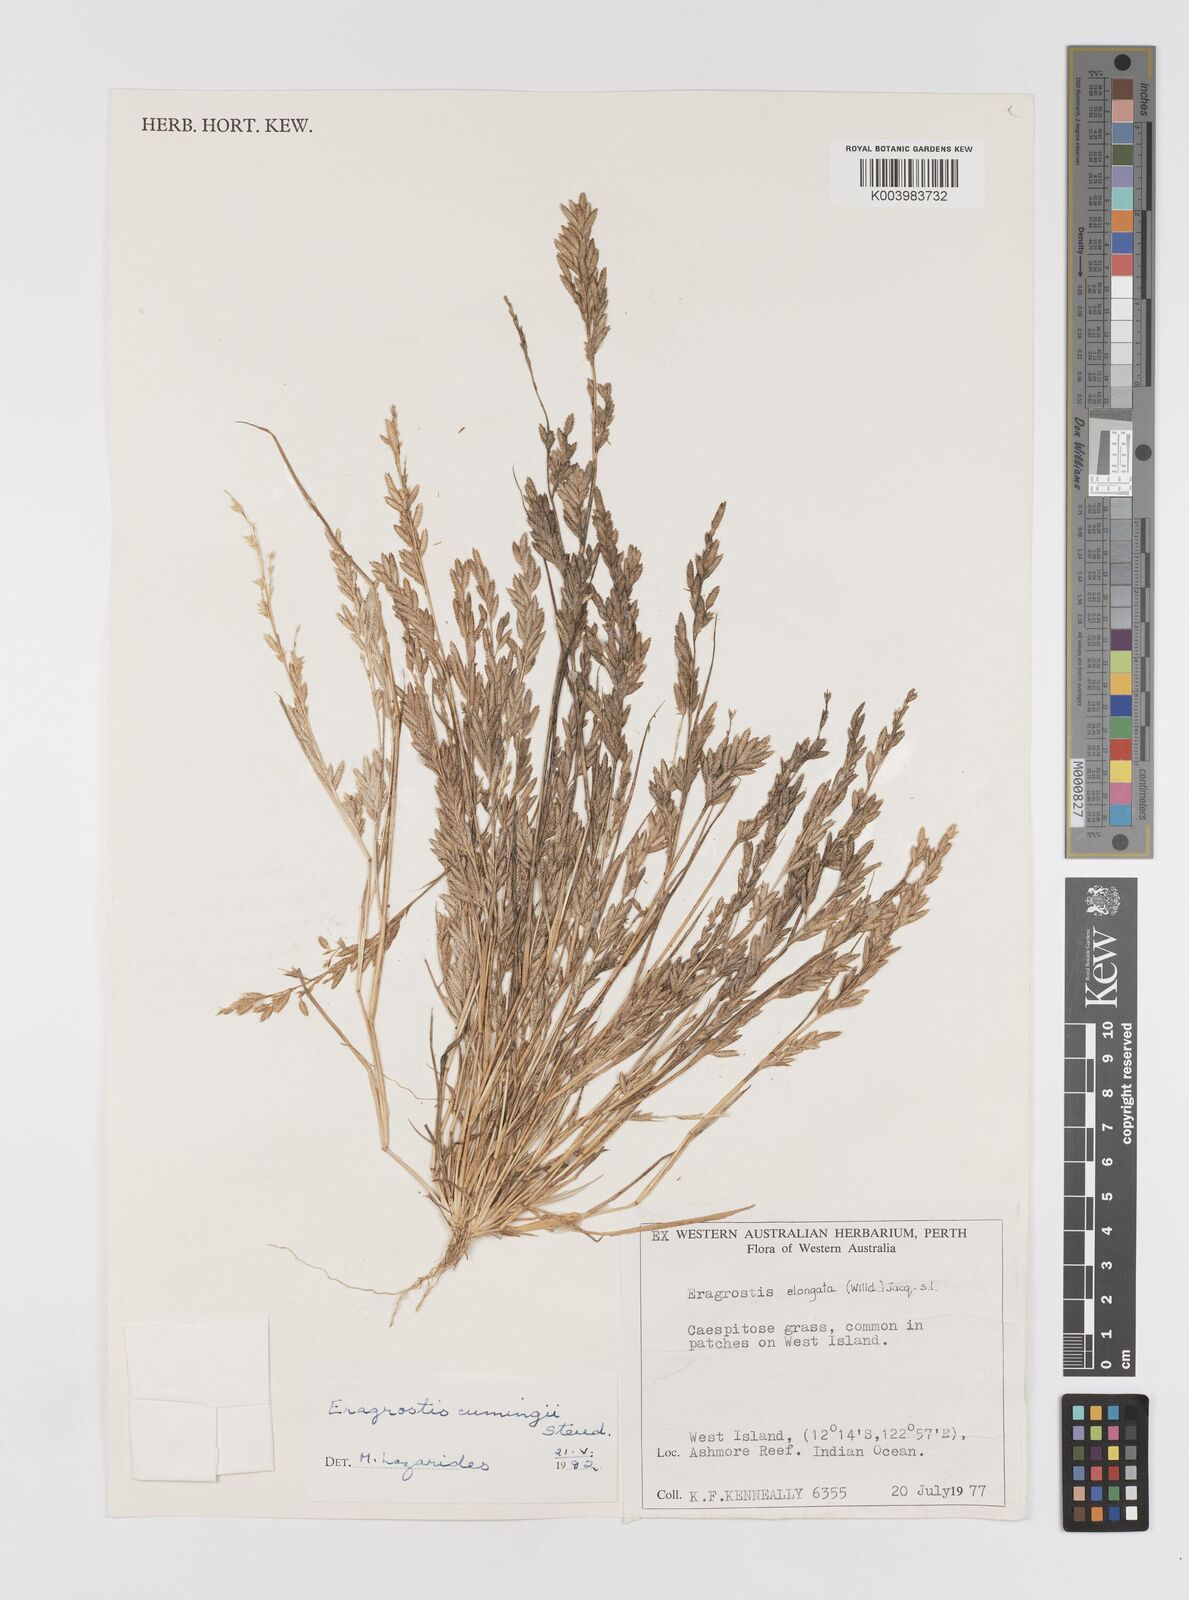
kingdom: Plantae
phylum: Tracheophyta
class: Liliopsida
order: Poales
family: Poaceae
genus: Eragrostis
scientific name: Eragrostis cumingii
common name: Cuming's lovegrass
